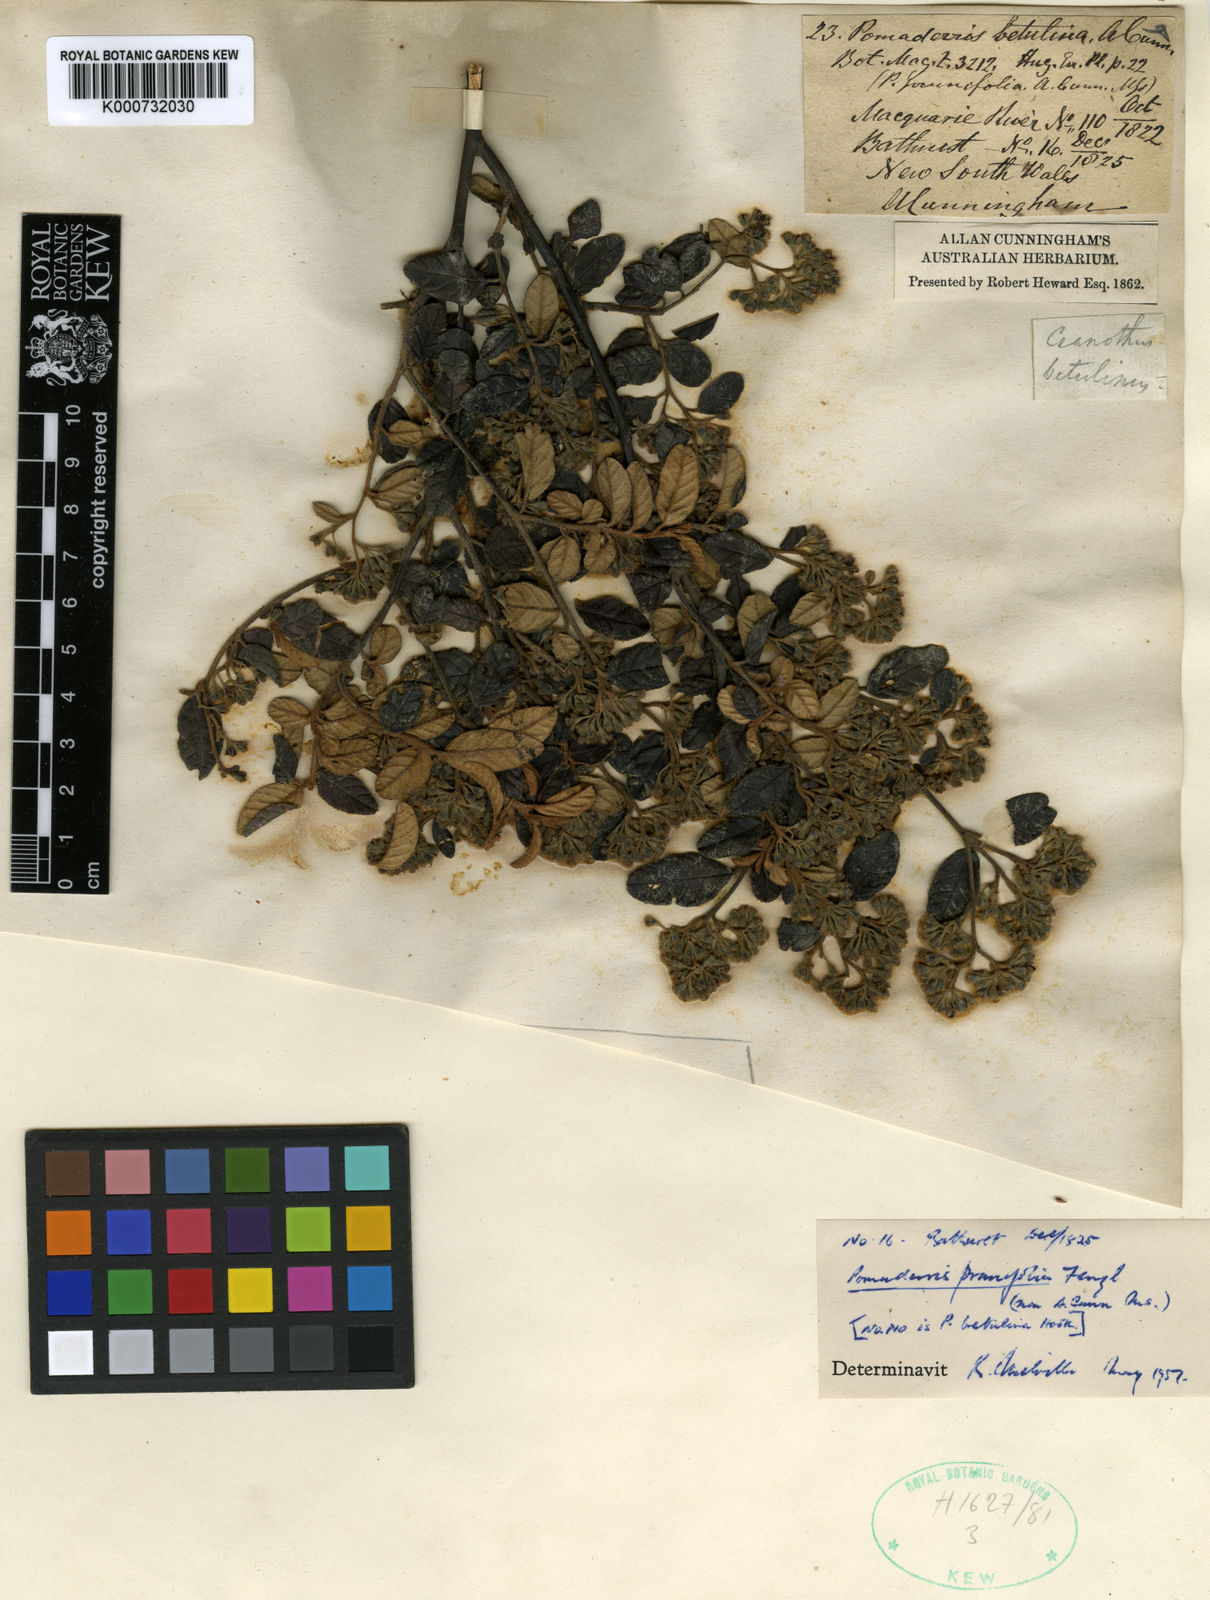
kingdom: Plantae
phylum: Tracheophyta
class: Magnoliopsida
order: Rosales
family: Rhamnaceae
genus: Pomaderris
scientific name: Pomaderris
